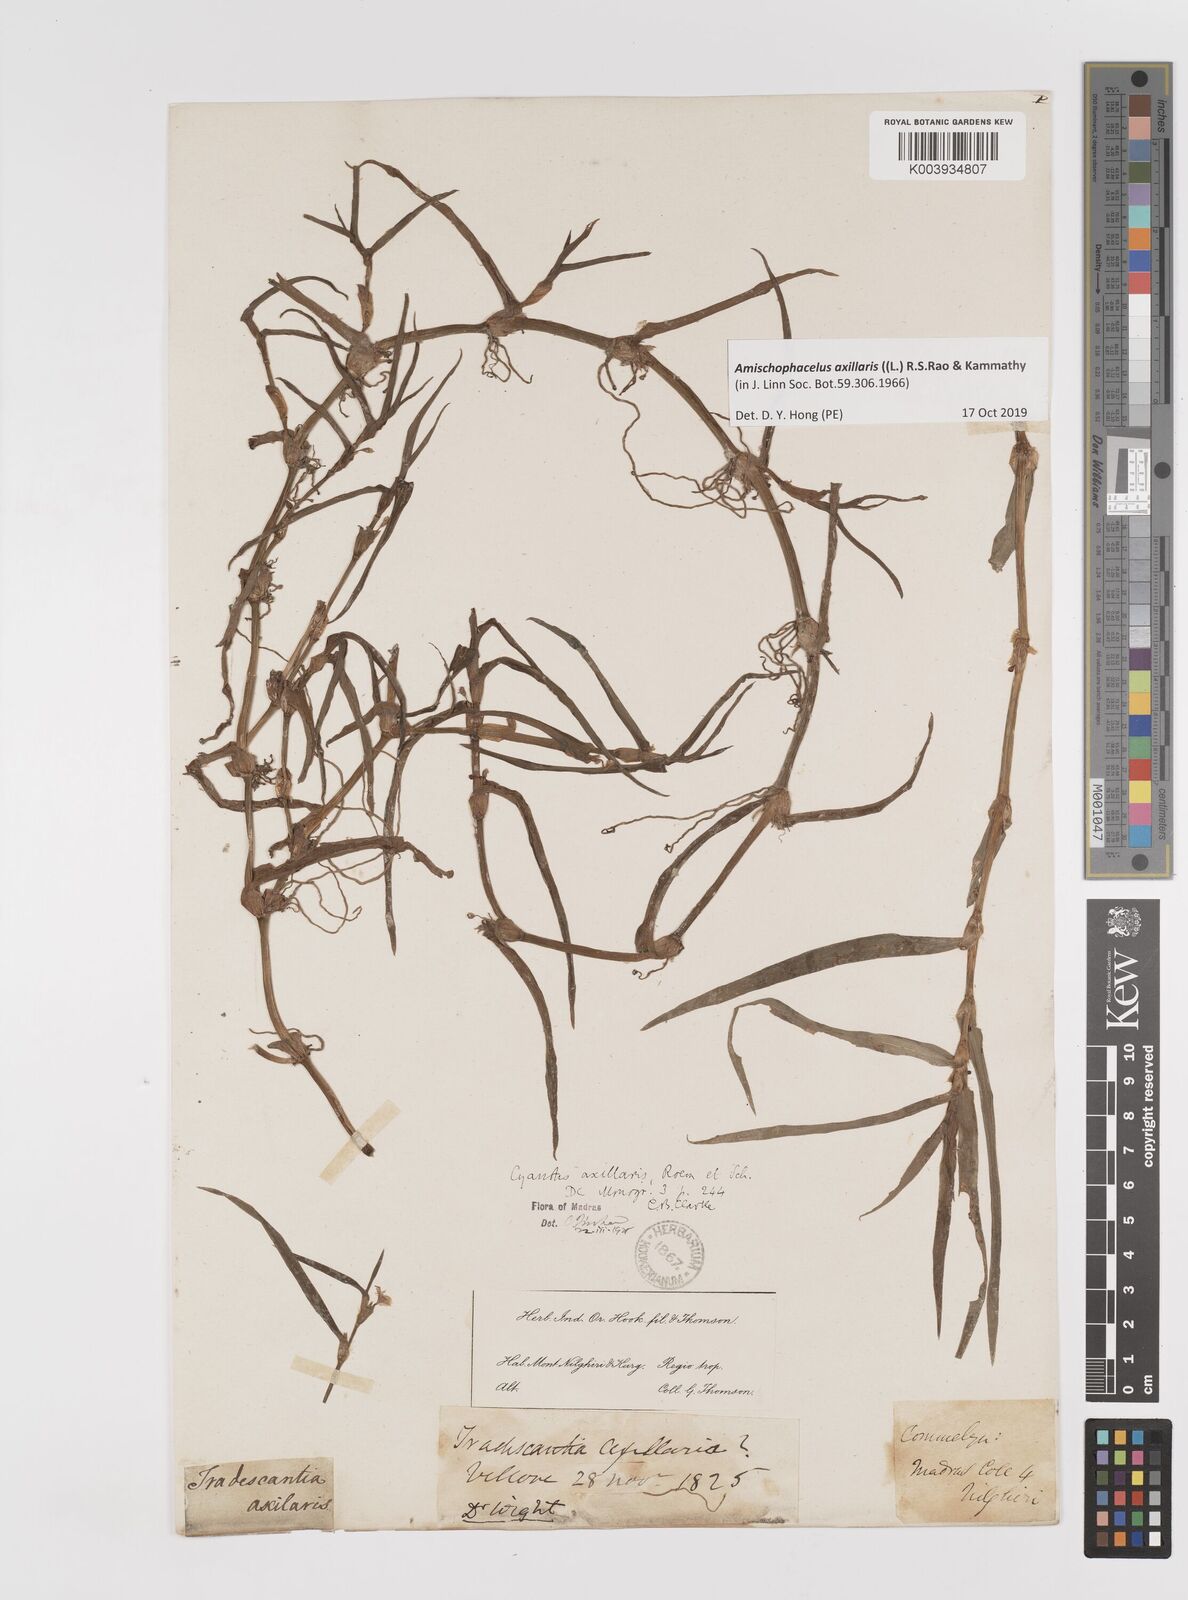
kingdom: Plantae
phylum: Tracheophyta
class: Liliopsida
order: Commelinales
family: Commelinaceae
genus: Cyanotis
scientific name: Cyanotis axillaris
